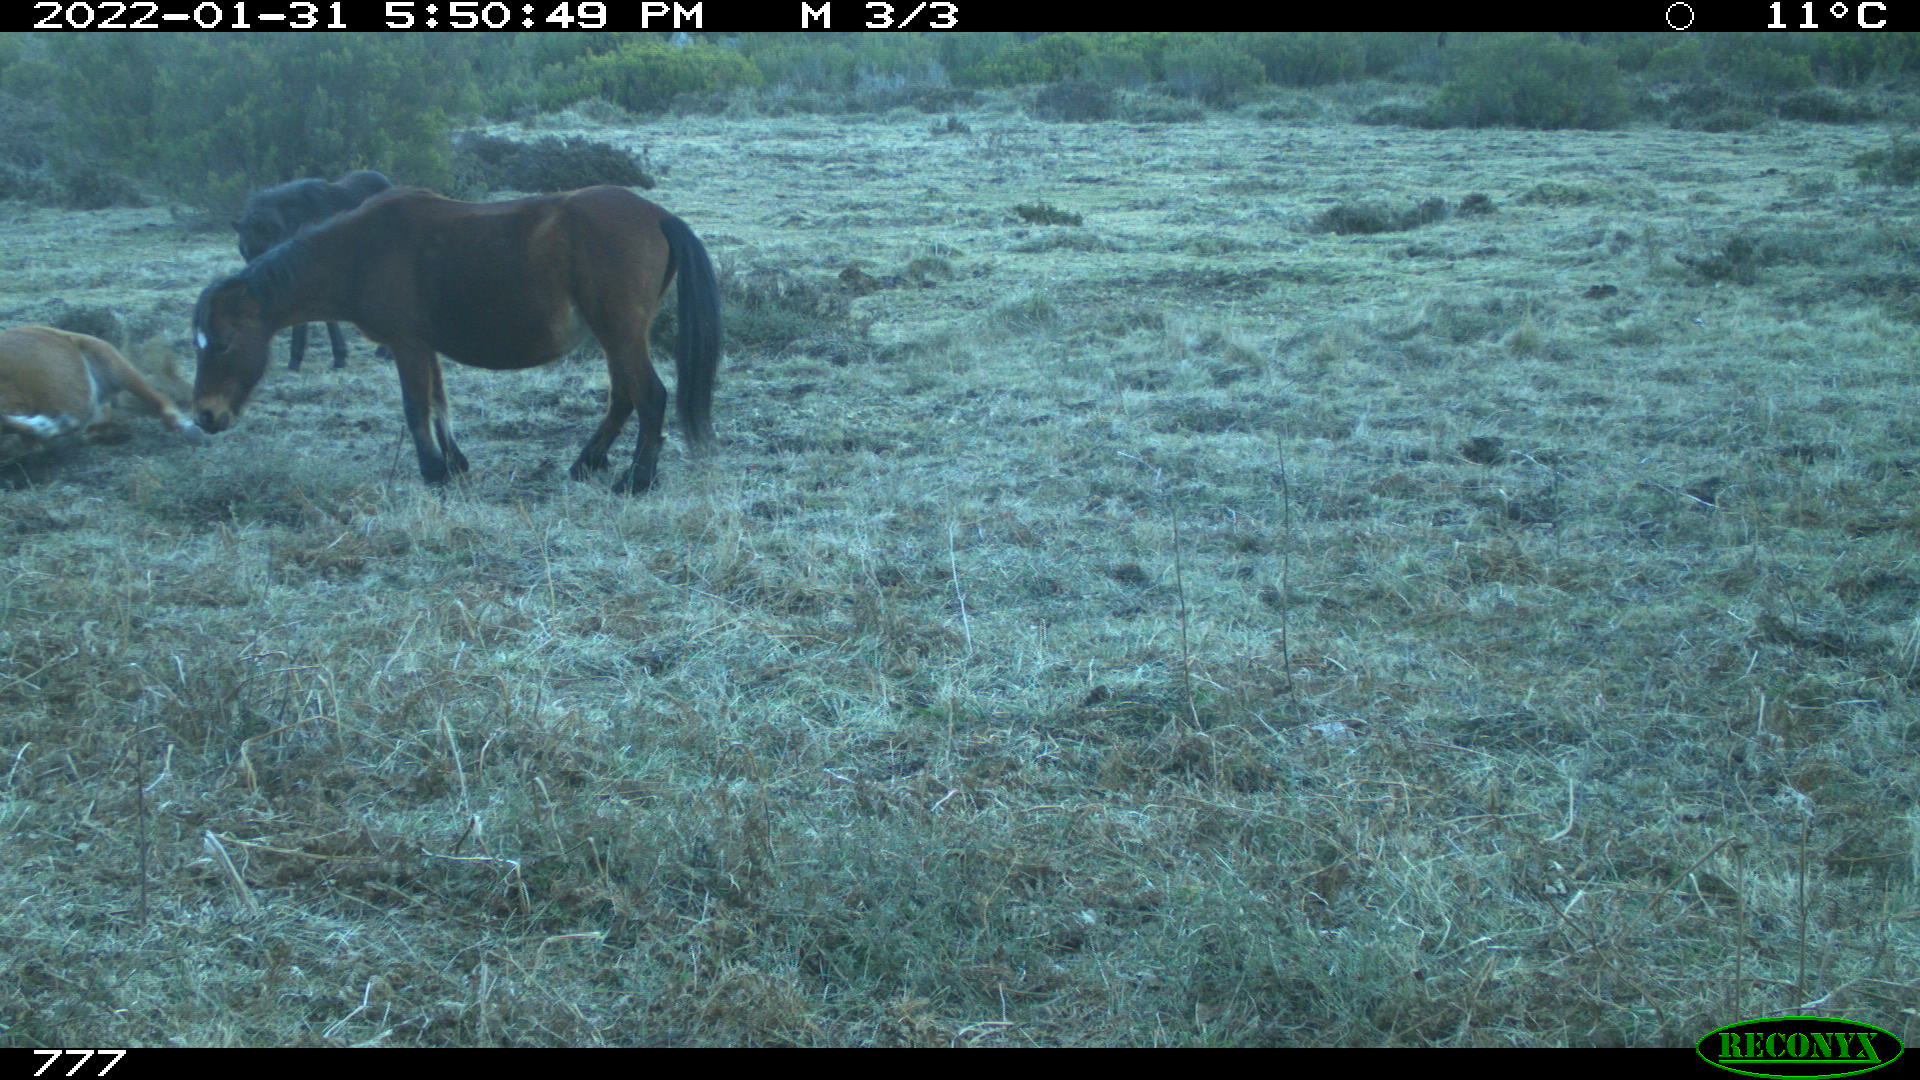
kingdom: Animalia
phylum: Chordata
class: Mammalia
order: Perissodactyla
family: Equidae
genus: Equus
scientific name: Equus caballus
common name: Horse
